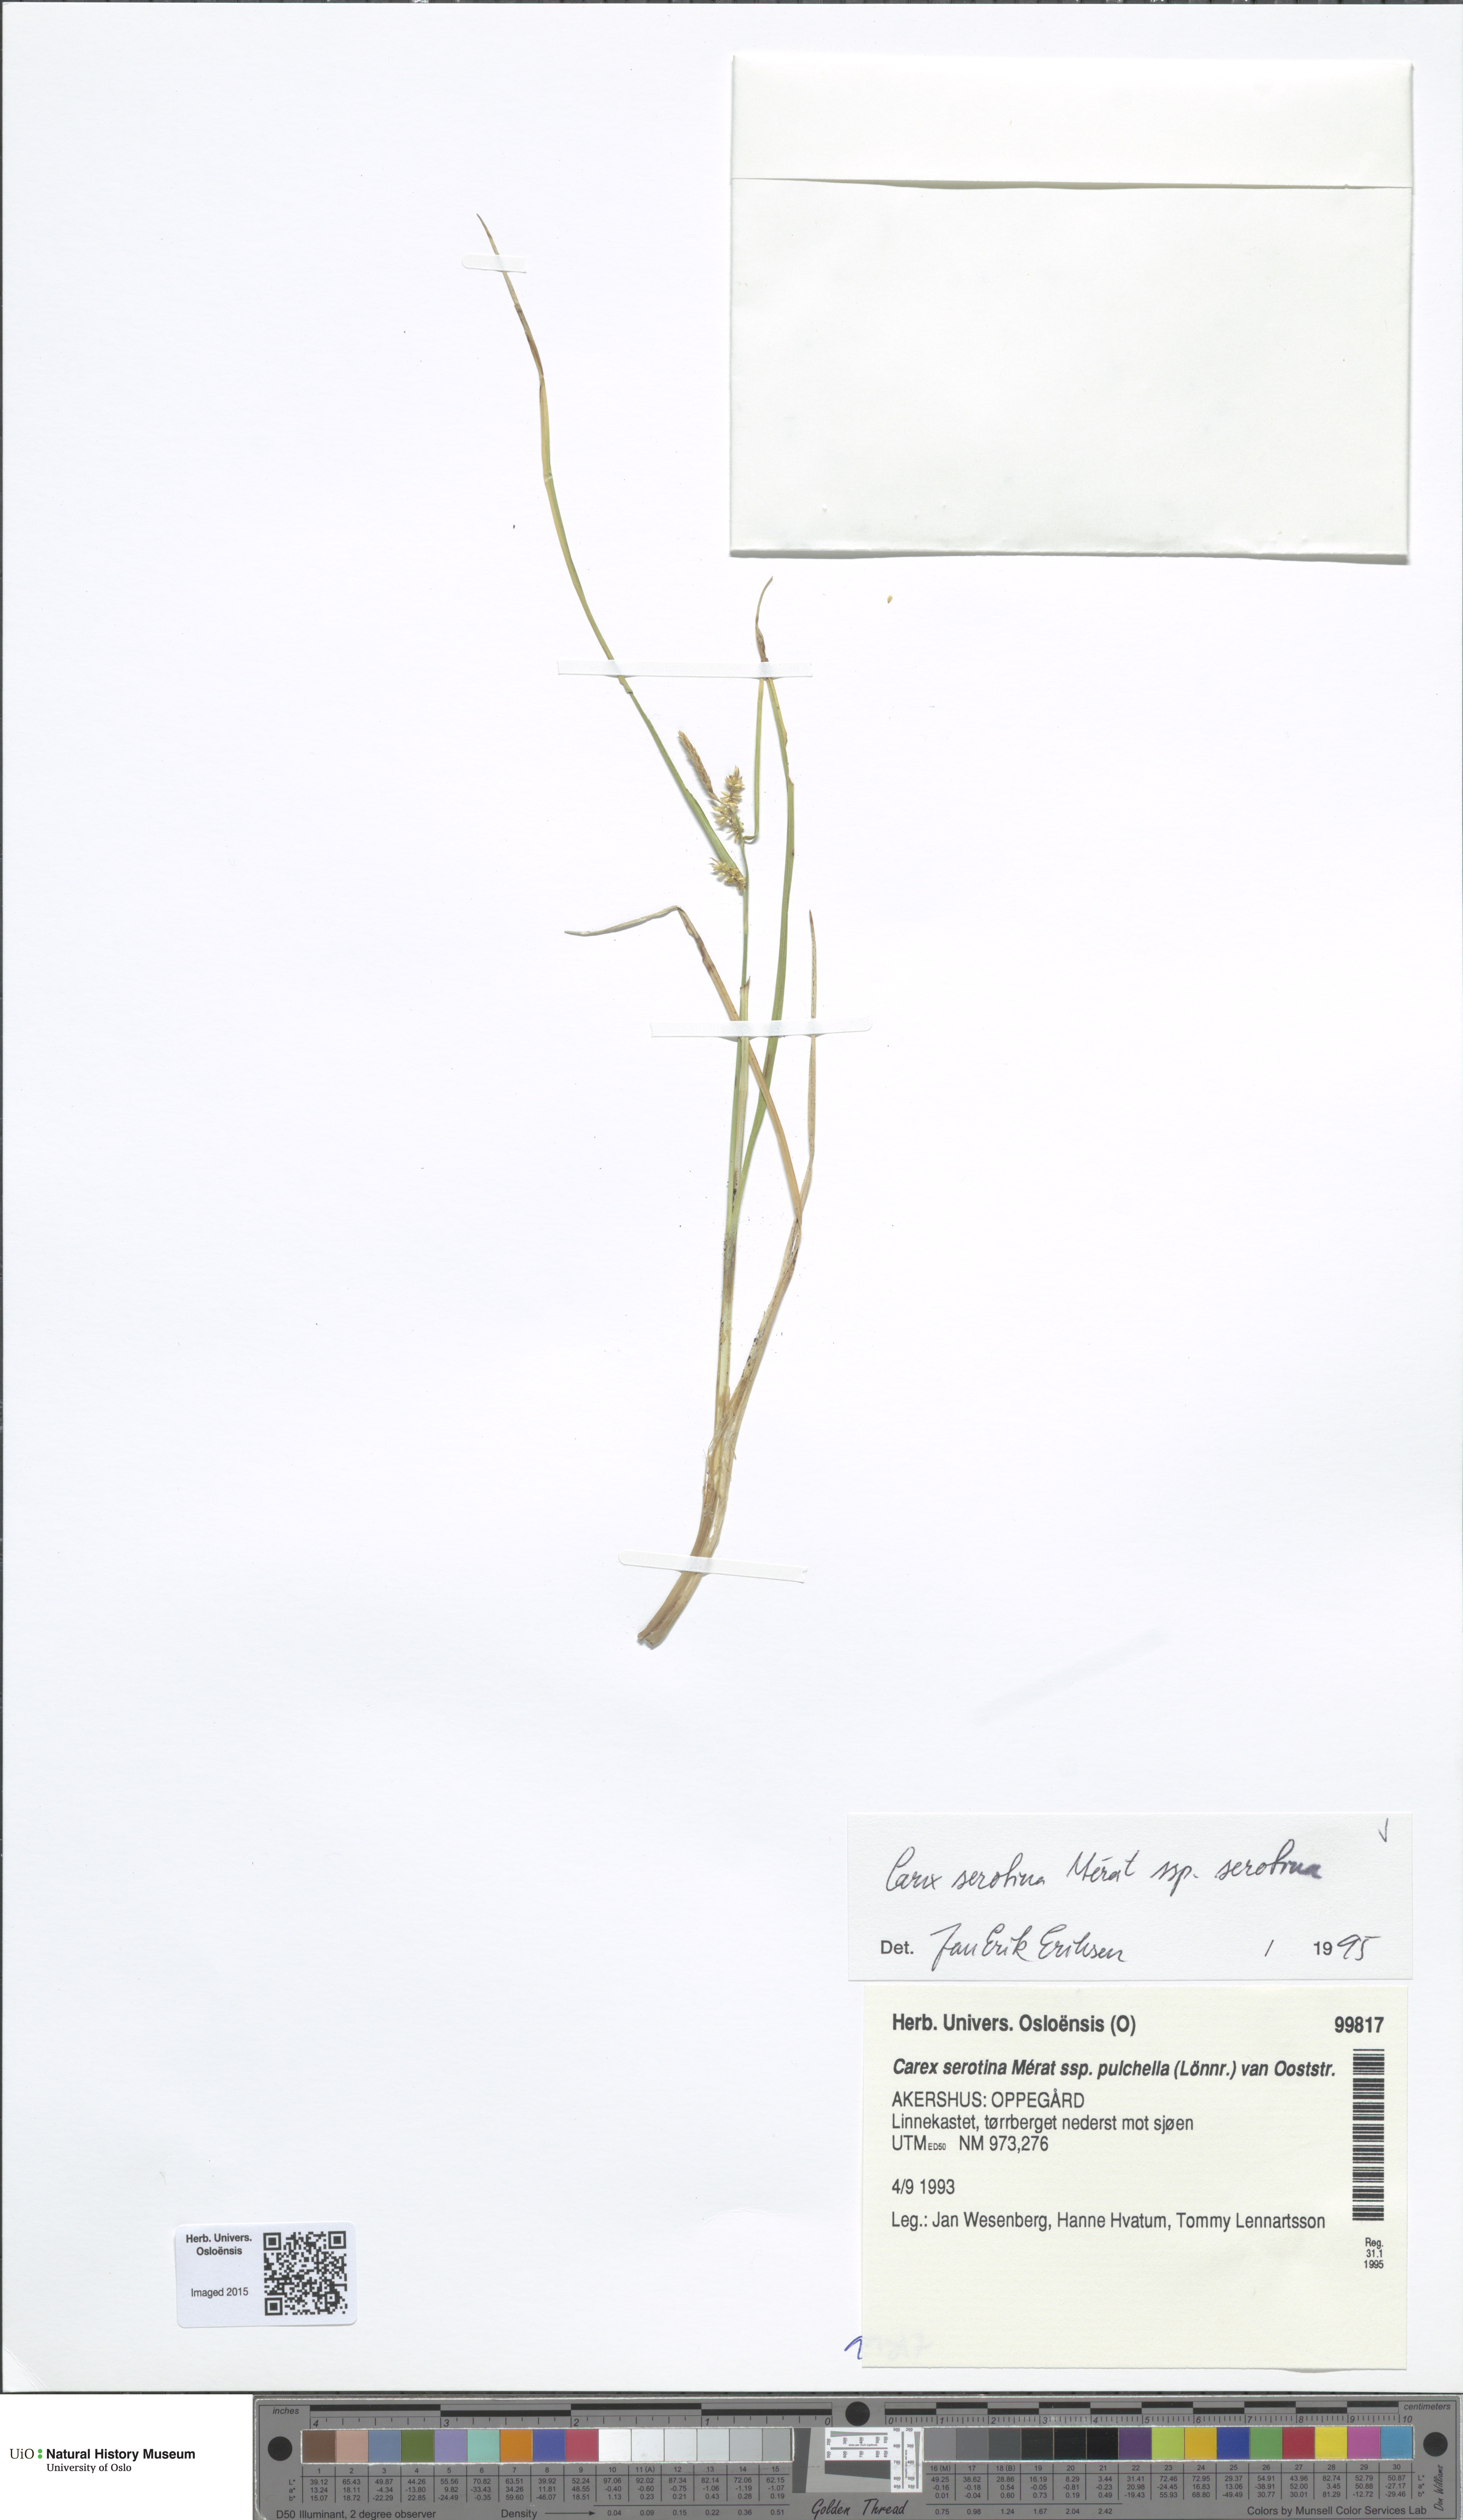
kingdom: Plantae
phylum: Tracheophyta
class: Liliopsida
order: Poales
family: Cyperaceae
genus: Carex
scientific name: Carex oederi
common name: Common & small-fruited yellow-sedge
